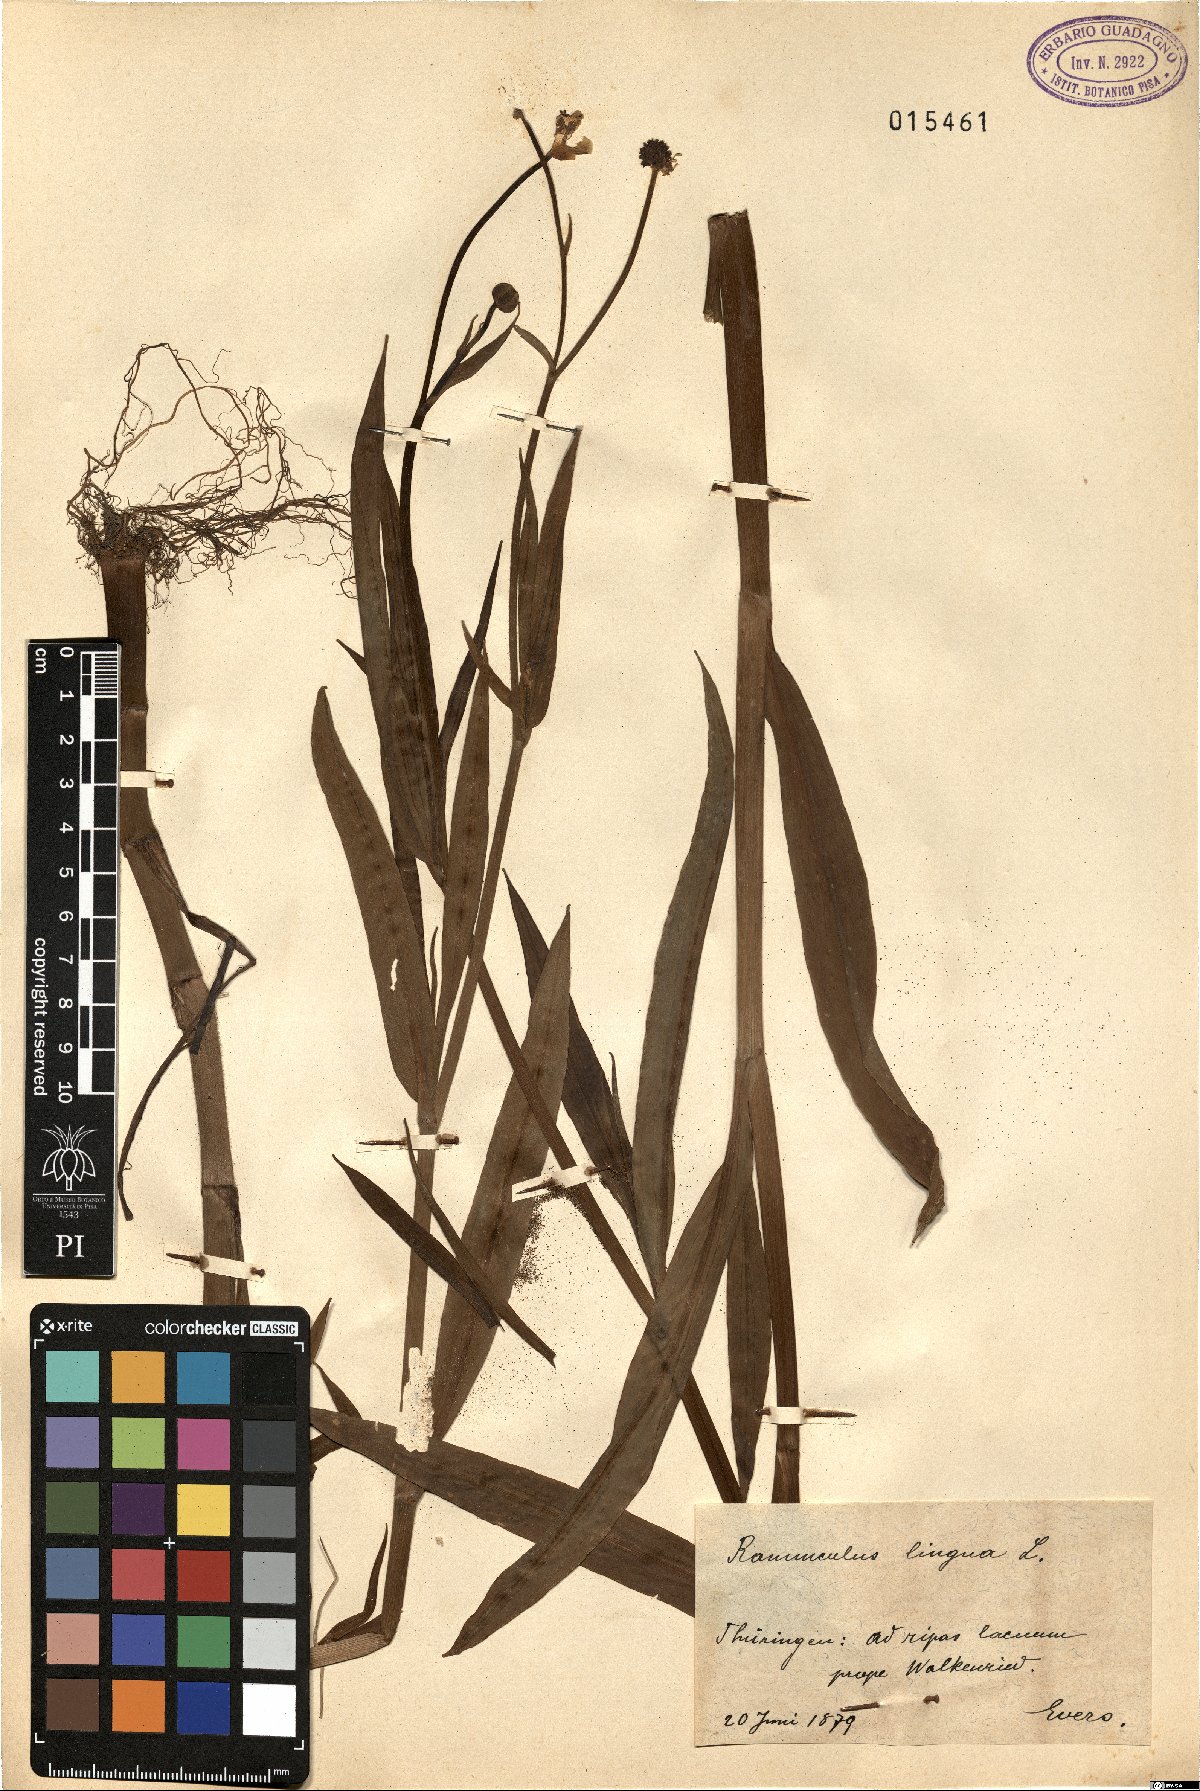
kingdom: Plantae
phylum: Tracheophyta
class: Magnoliopsida
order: Ranunculales
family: Ranunculaceae
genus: Ranunculus
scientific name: Ranunculus lingua
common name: Greater spearwort
